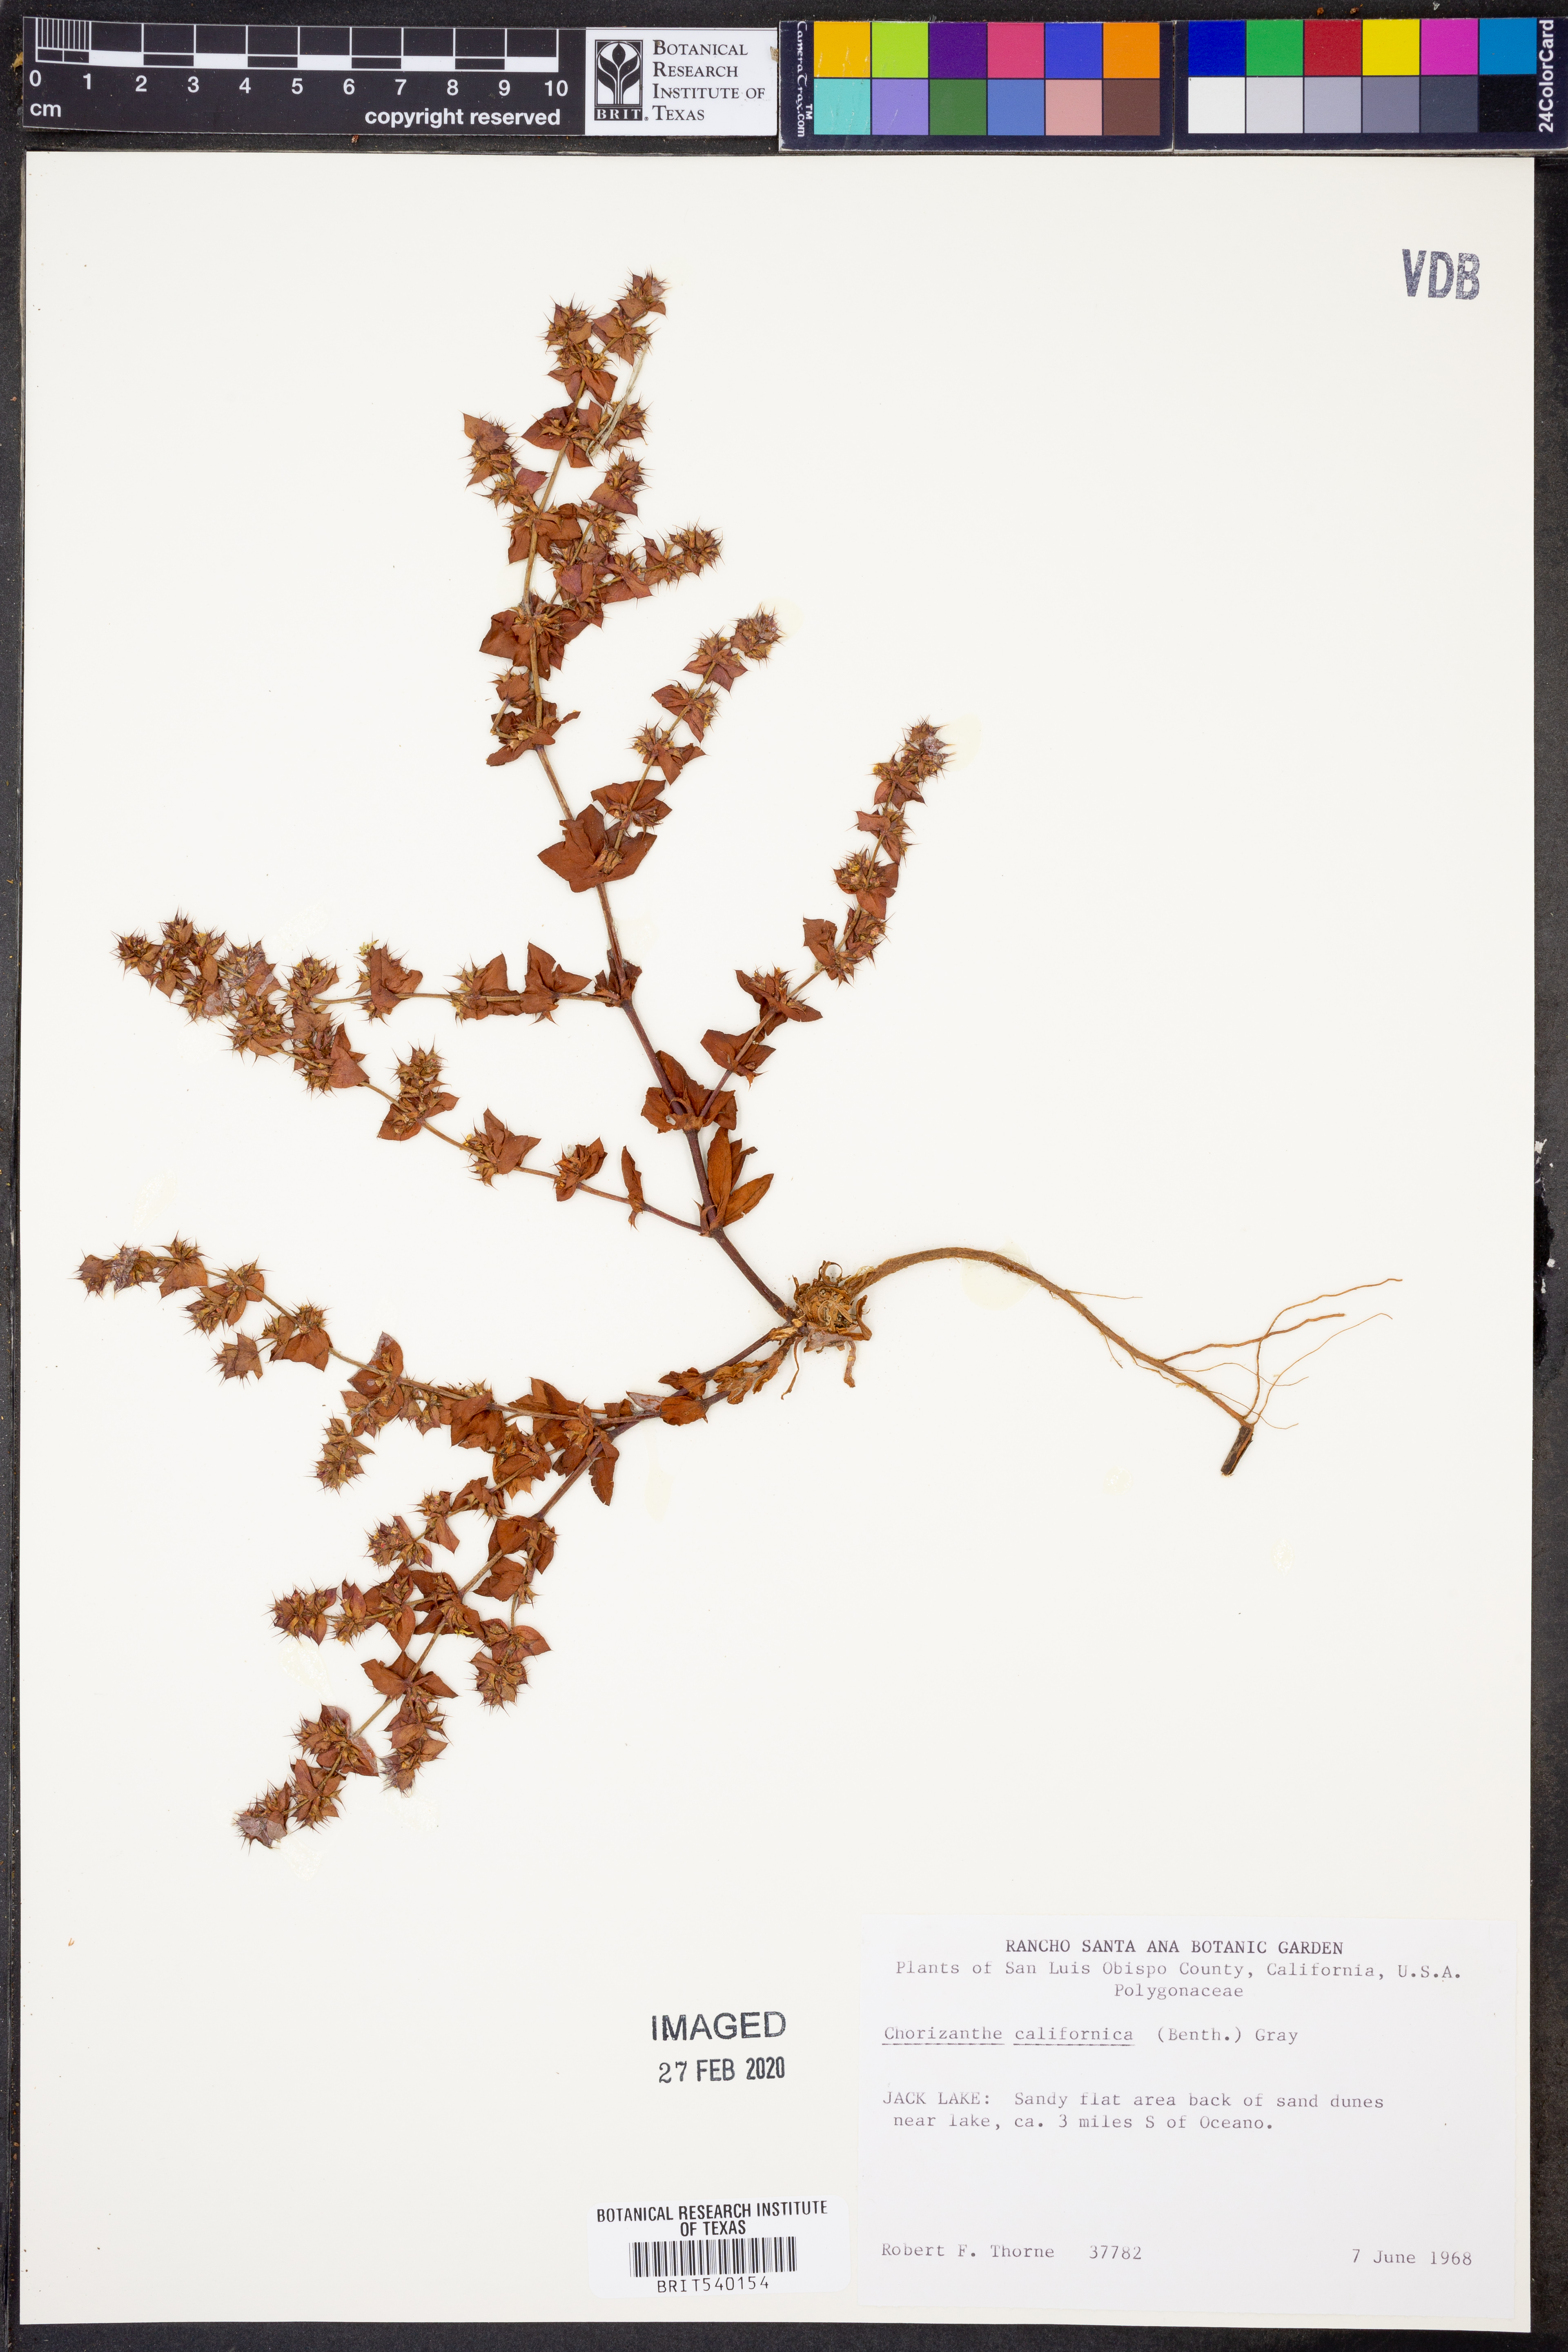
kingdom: Plantae
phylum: Tracheophyta
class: Magnoliopsida
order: Caryophyllales
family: Polygonaceae
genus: Mucronea
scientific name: Mucronea californica
